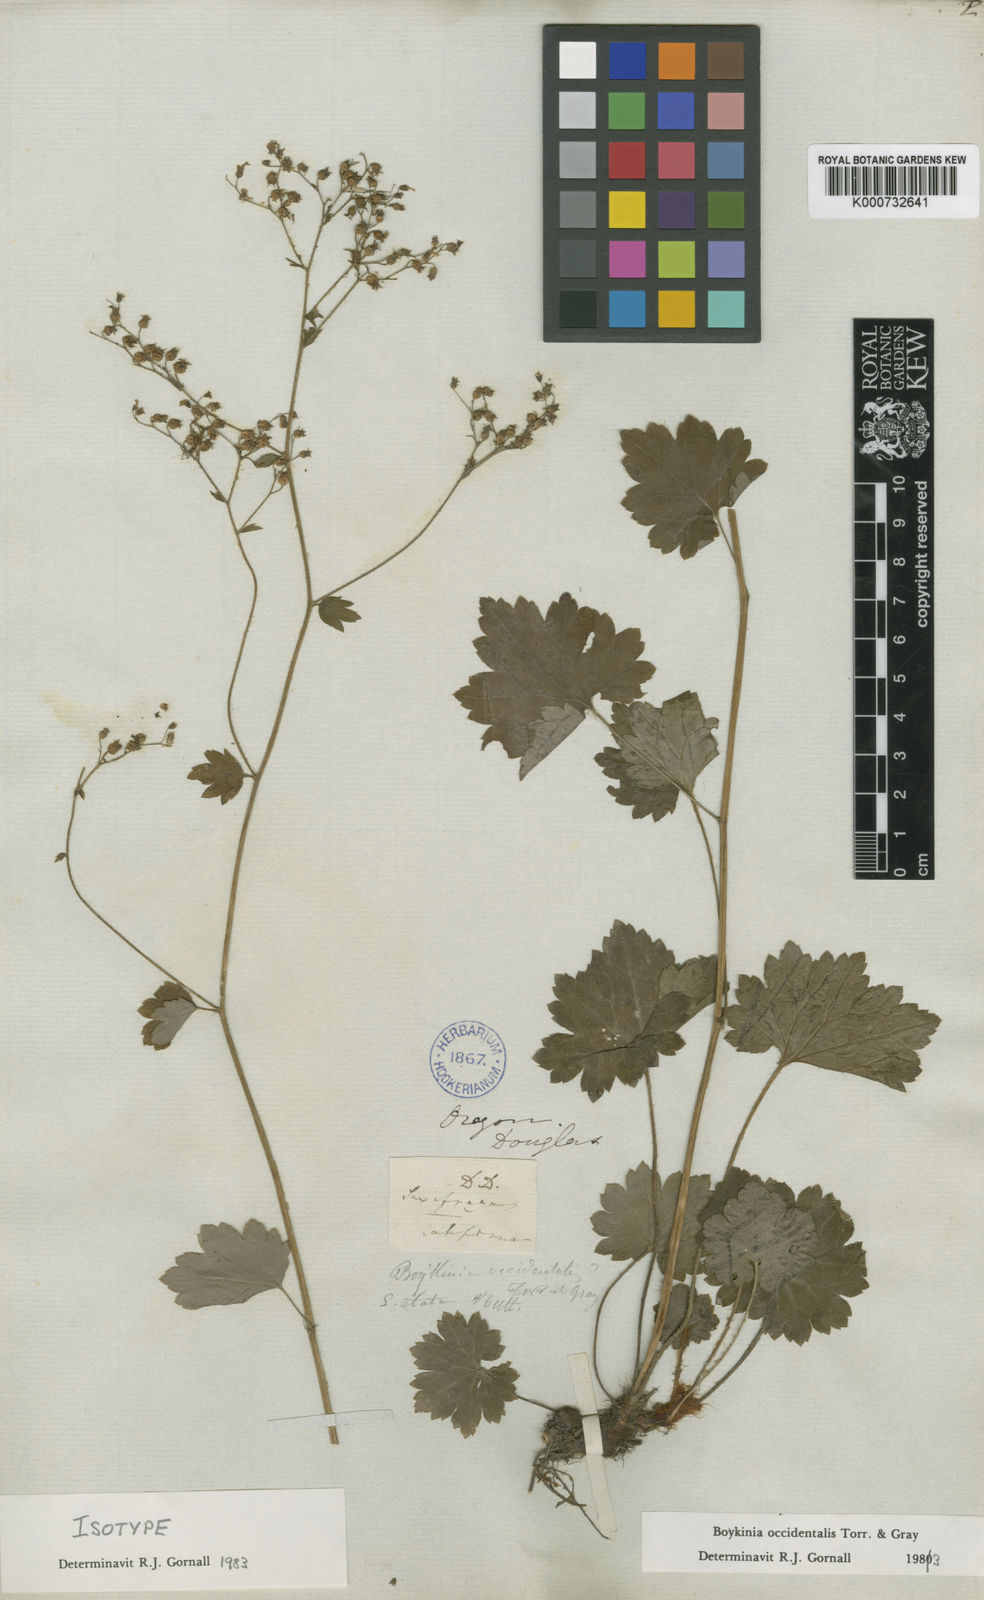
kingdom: Plantae
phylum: Tracheophyta
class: Magnoliopsida
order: Saxifragales
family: Saxifragaceae
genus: Boykinia
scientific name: Boykinia occidentalis
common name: Coast boykinia
